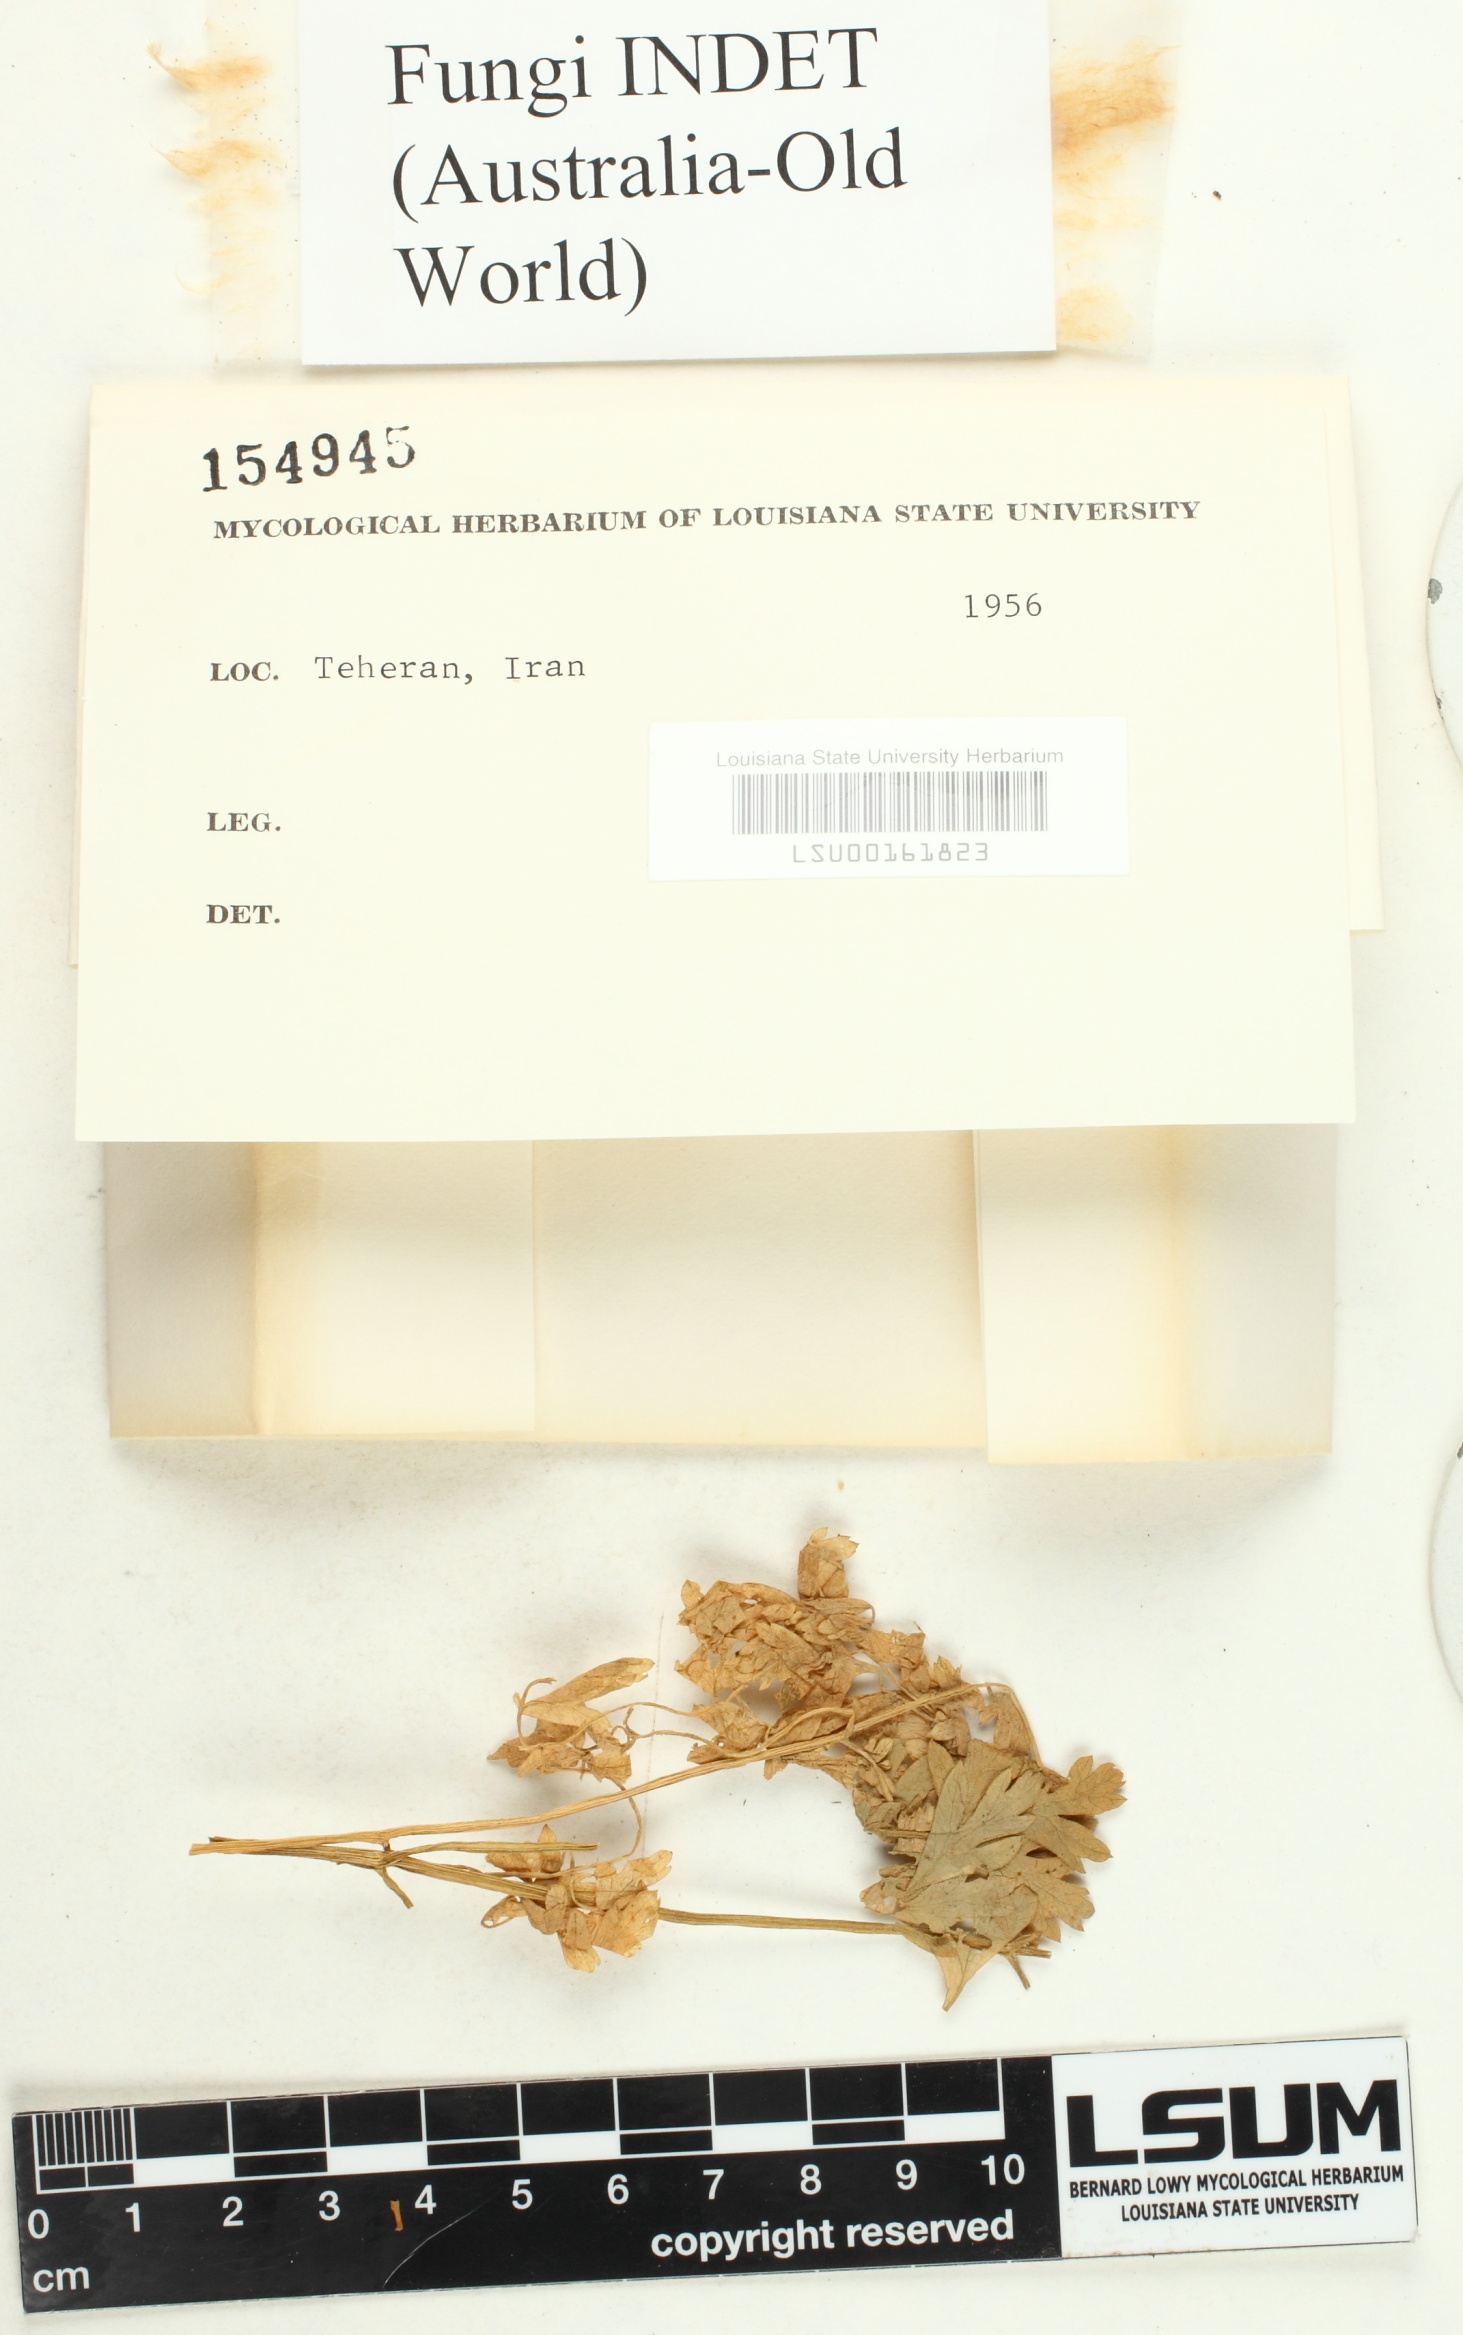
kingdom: Fungi
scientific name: Fungi
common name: Fungi
